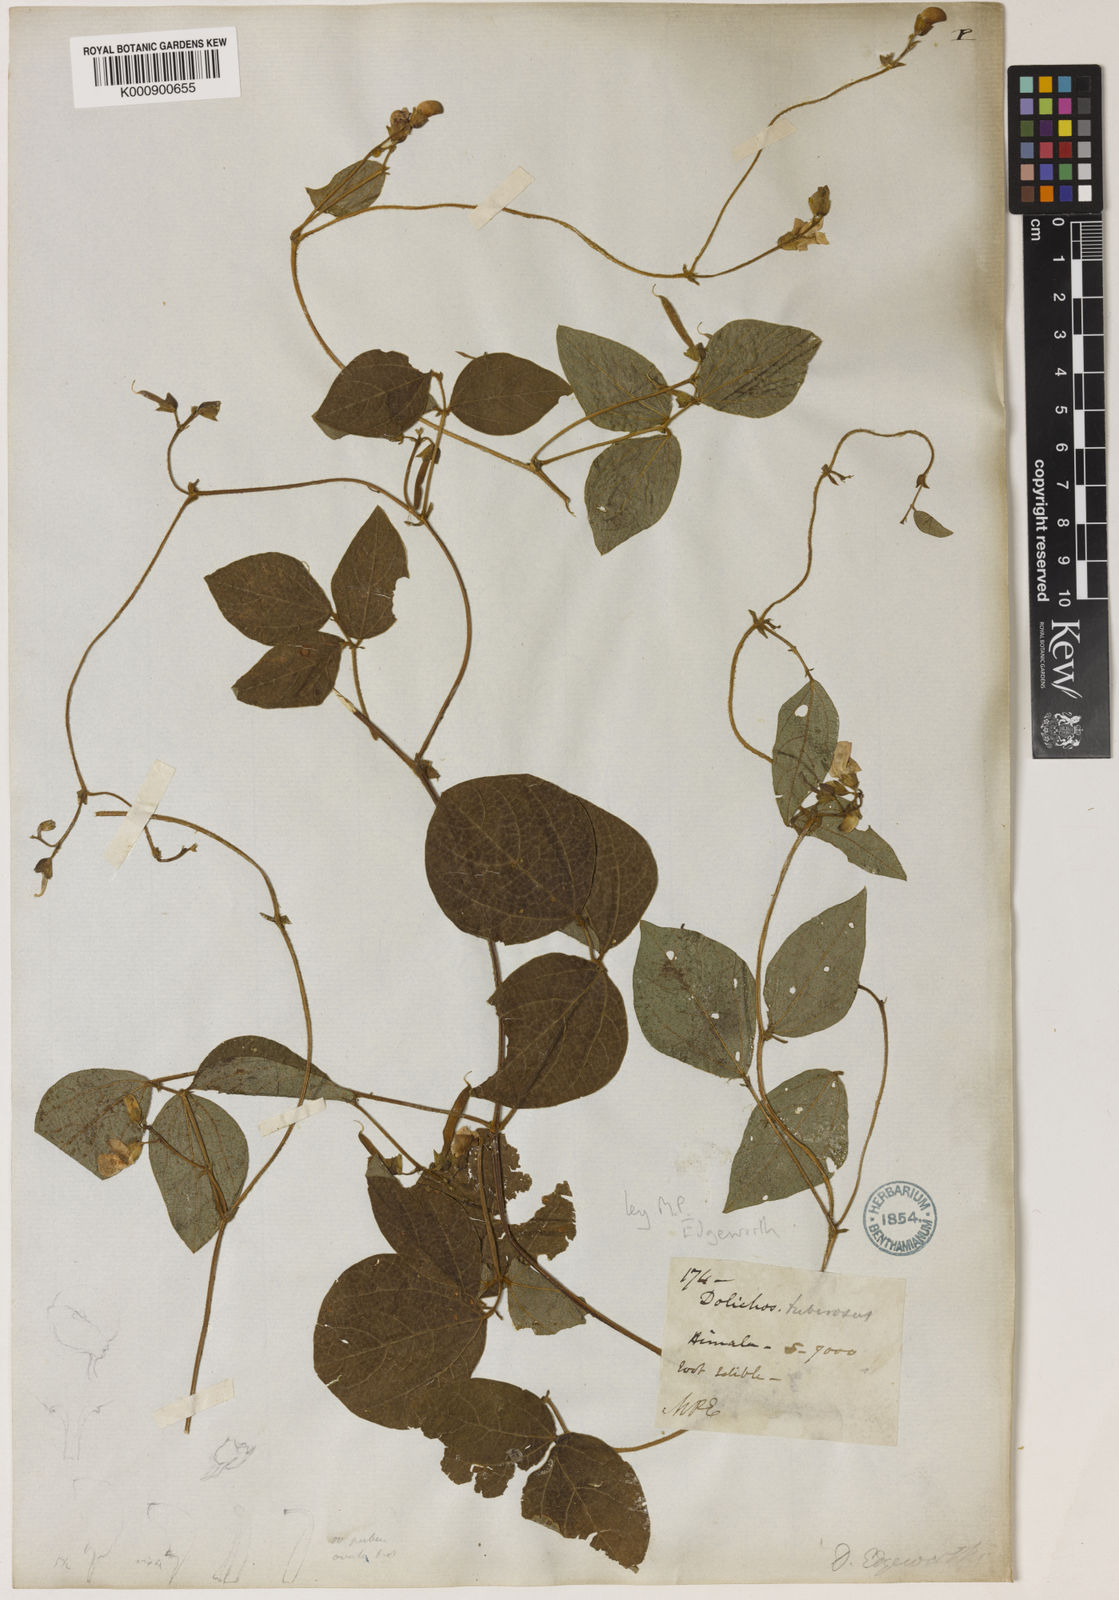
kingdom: Plantae
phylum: Tracheophyta
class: Magnoliopsida
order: Fabales
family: Fabaceae
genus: Dolichos
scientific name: Dolichos
